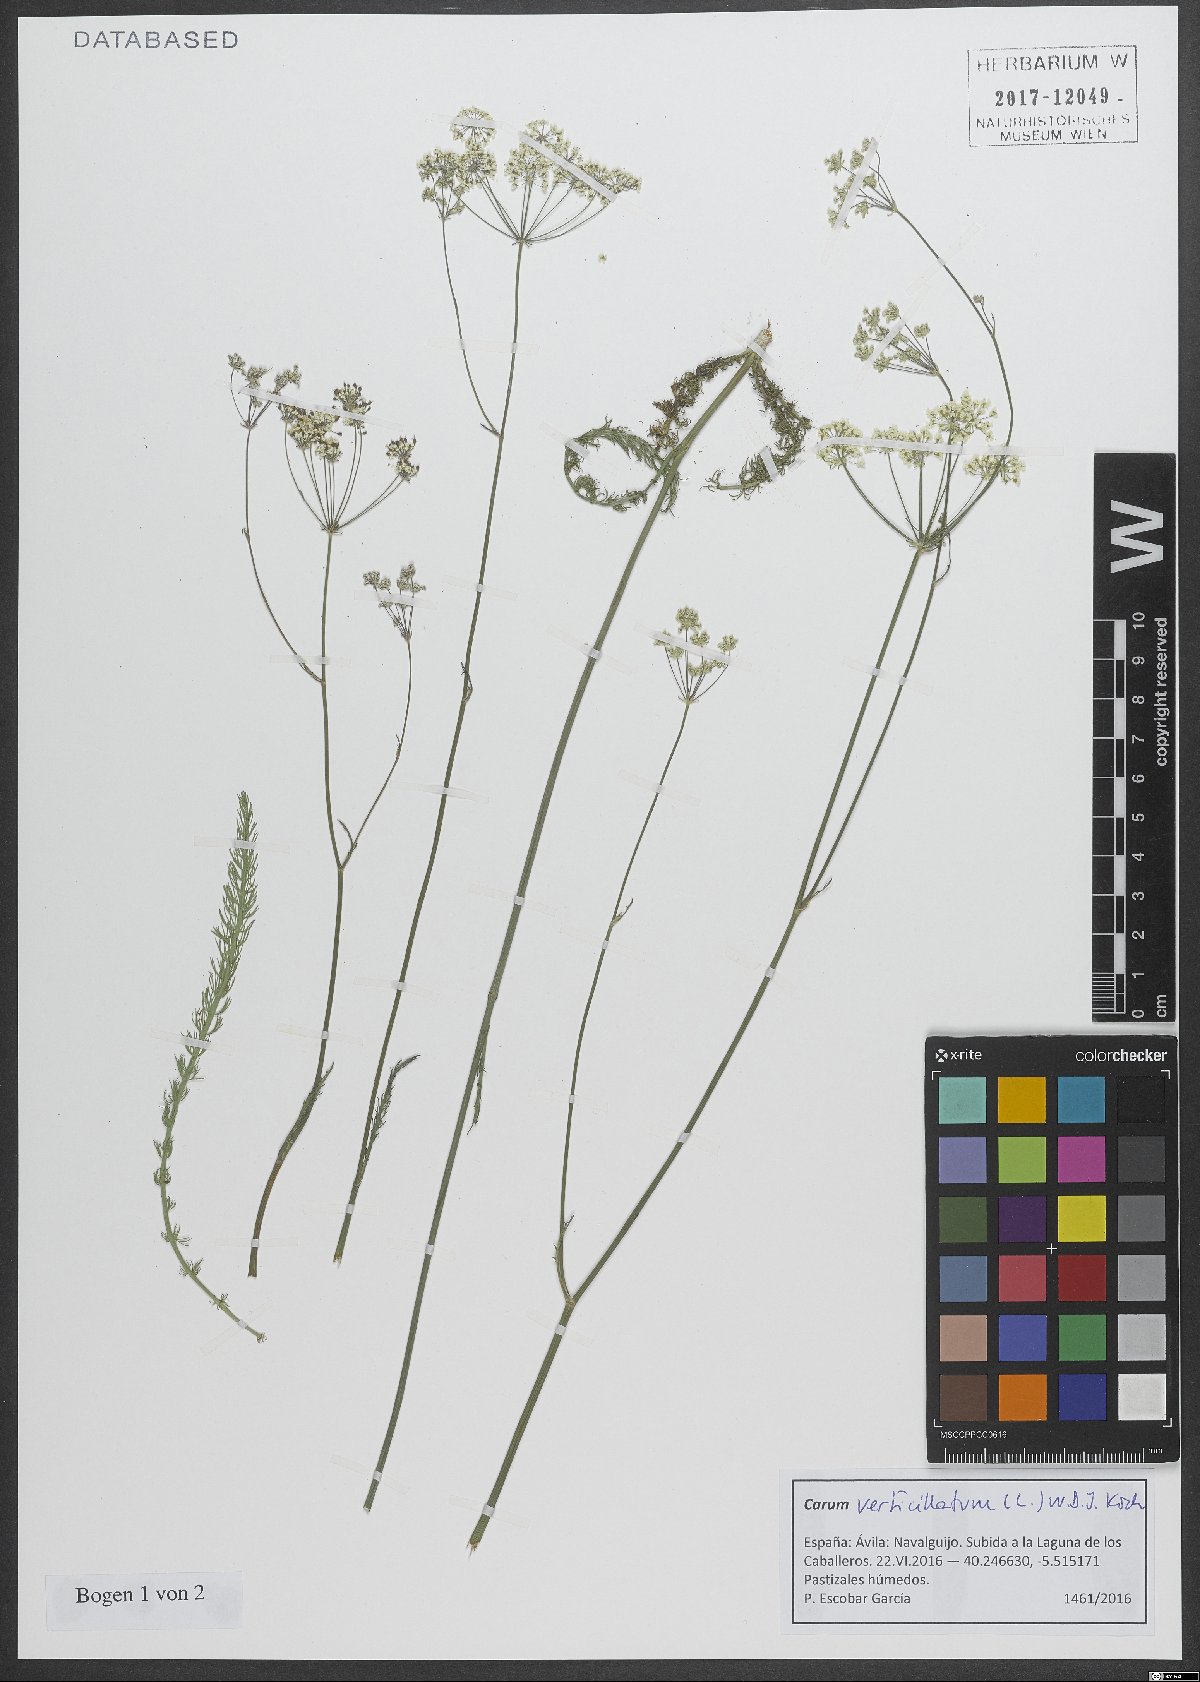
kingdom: Plantae
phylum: Tracheophyta
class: Magnoliopsida
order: Apiales
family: Apiaceae
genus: Trocdaris
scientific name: Trocdaris verticillatum
